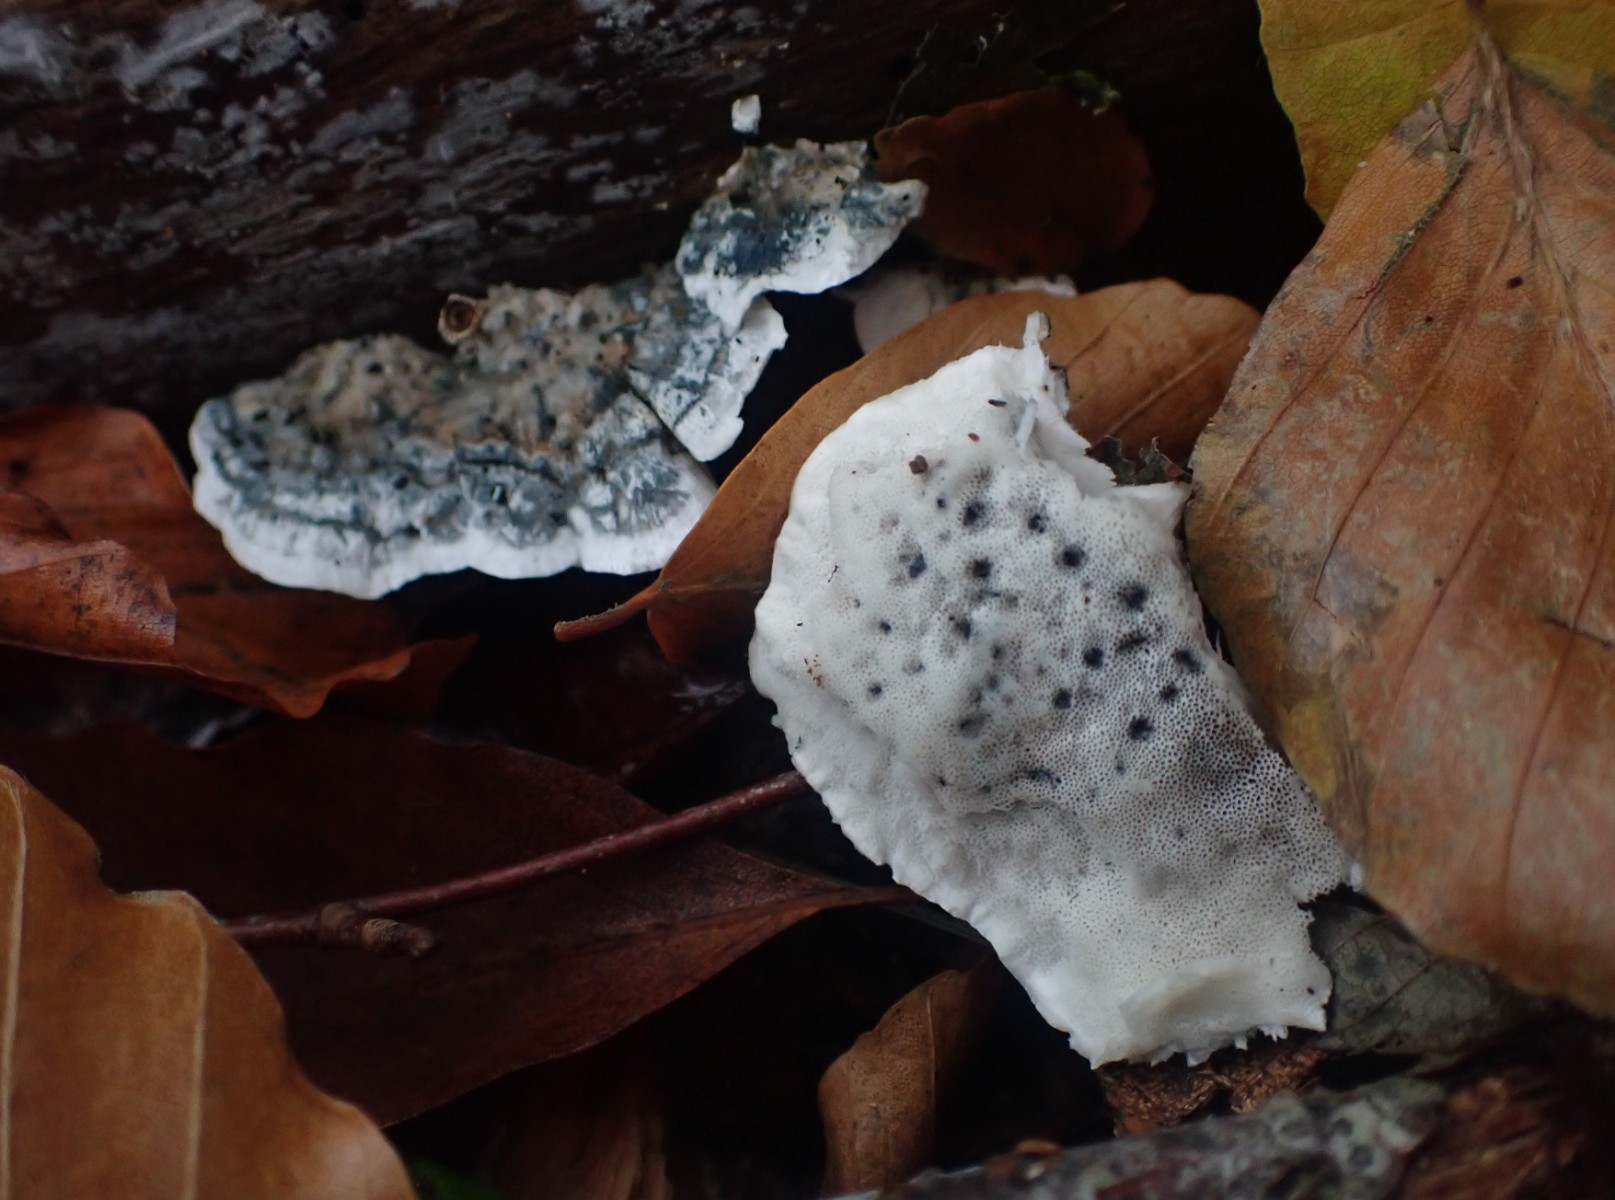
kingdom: Fungi
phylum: Basidiomycota
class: Agaricomycetes
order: Polyporales
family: Polyporaceae
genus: Cyanosporus
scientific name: Cyanosporus alni
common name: blegblå kødporesvamp
